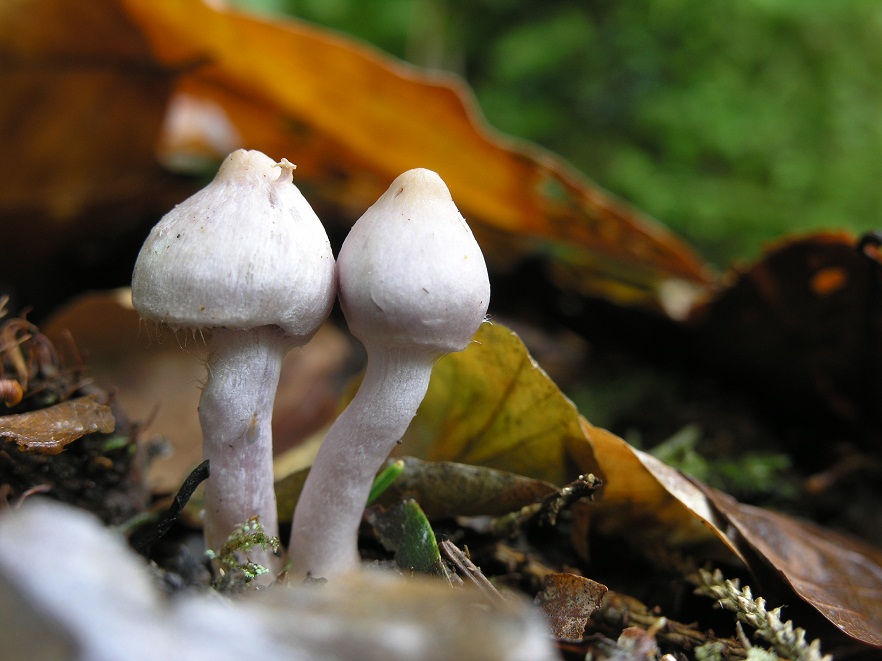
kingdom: Fungi
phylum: Basidiomycota
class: Agaricomycetes
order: Agaricales
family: Inocybaceae
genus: Inocybe
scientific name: Inocybe geophylla
